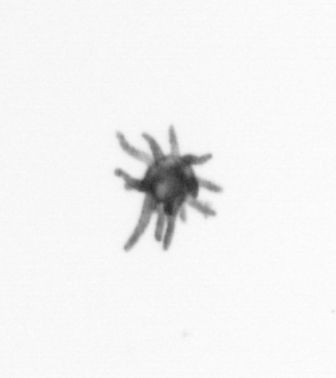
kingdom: Animalia
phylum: Cnidaria
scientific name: Cnidaria
